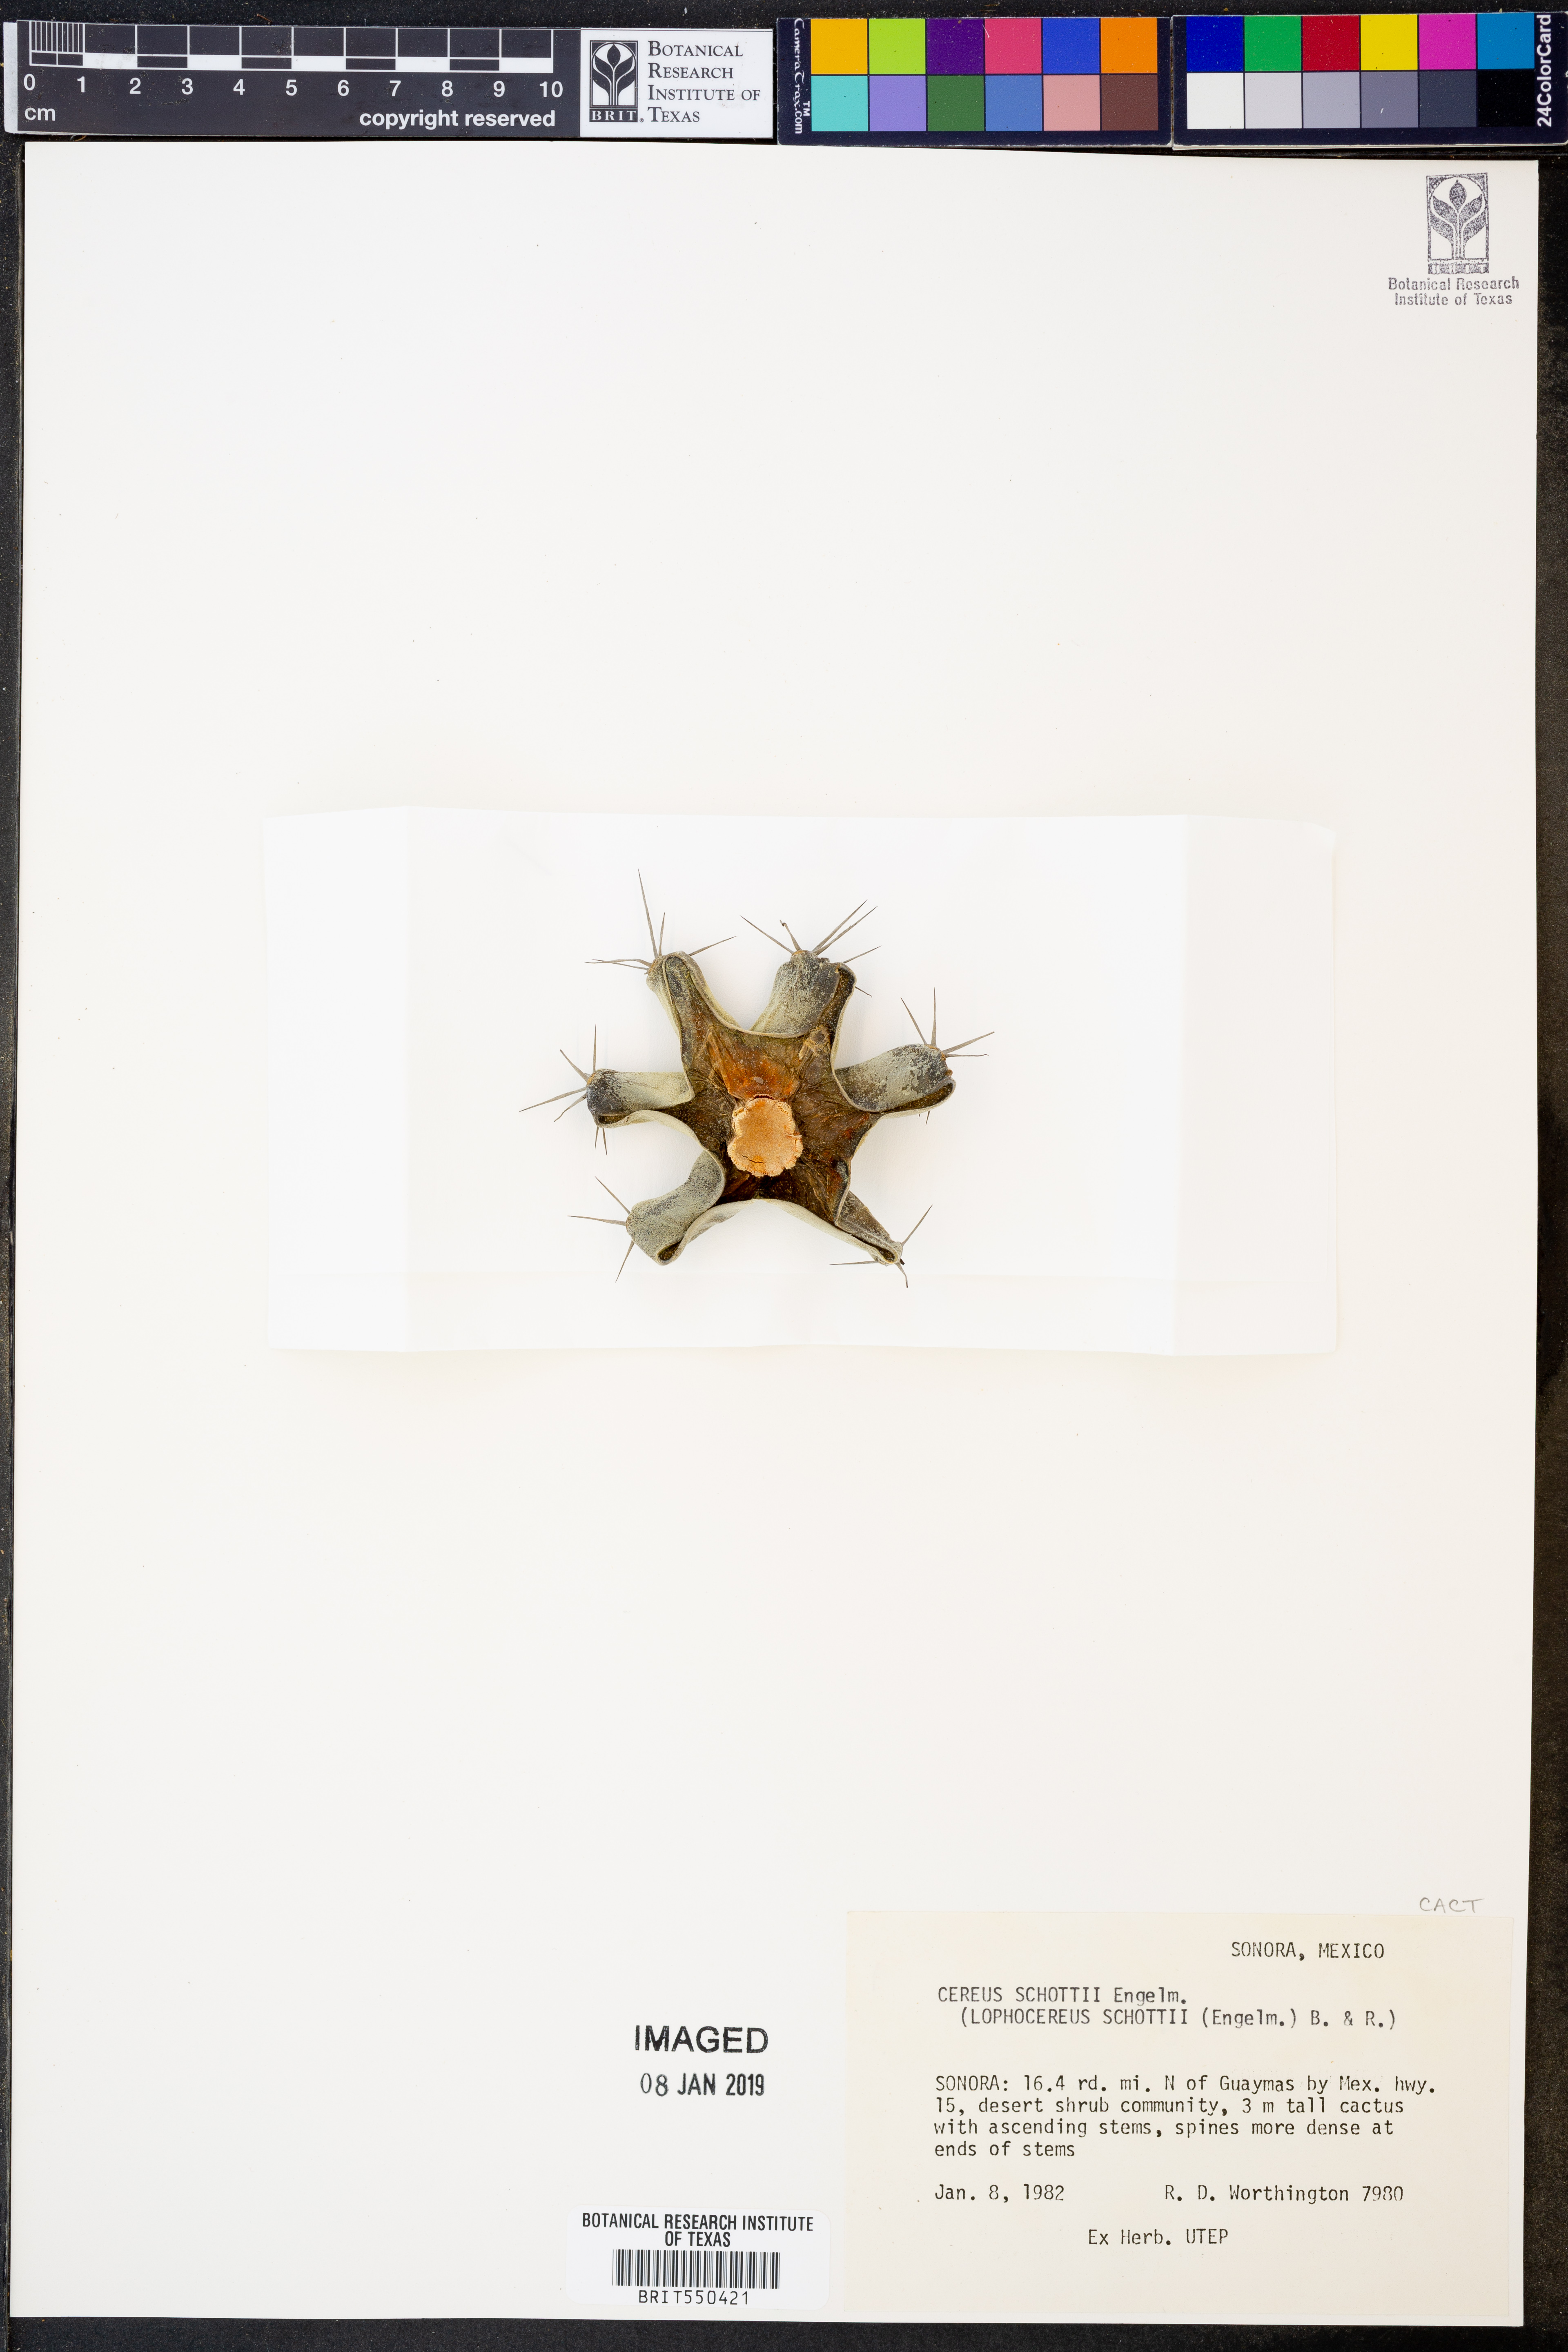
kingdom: Plantae
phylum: Tracheophyta
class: Magnoliopsida
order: Caryophyllales
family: Cactaceae
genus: Pachycereus
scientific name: Pachycereus schottii
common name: Senita cactus
